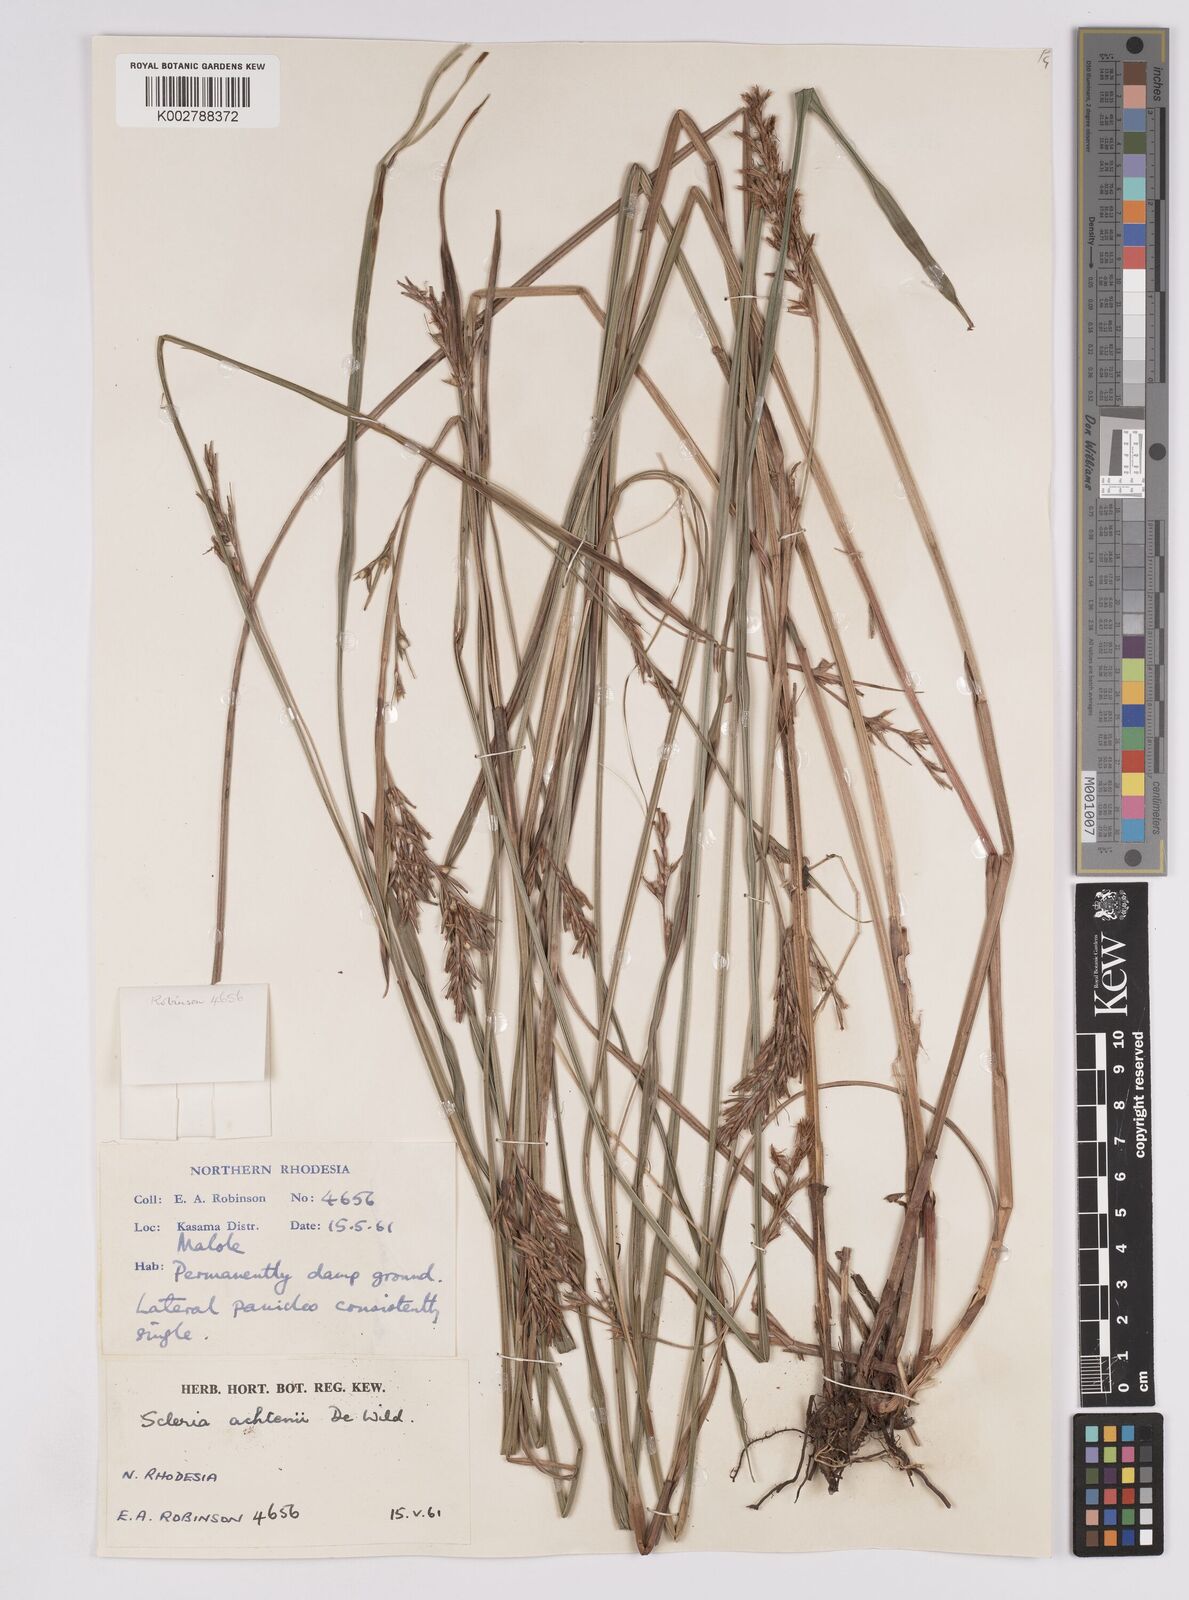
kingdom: Plantae
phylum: Tracheophyta
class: Liliopsida
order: Poales
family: Cyperaceae
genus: Scleria
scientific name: Scleria achtenii
